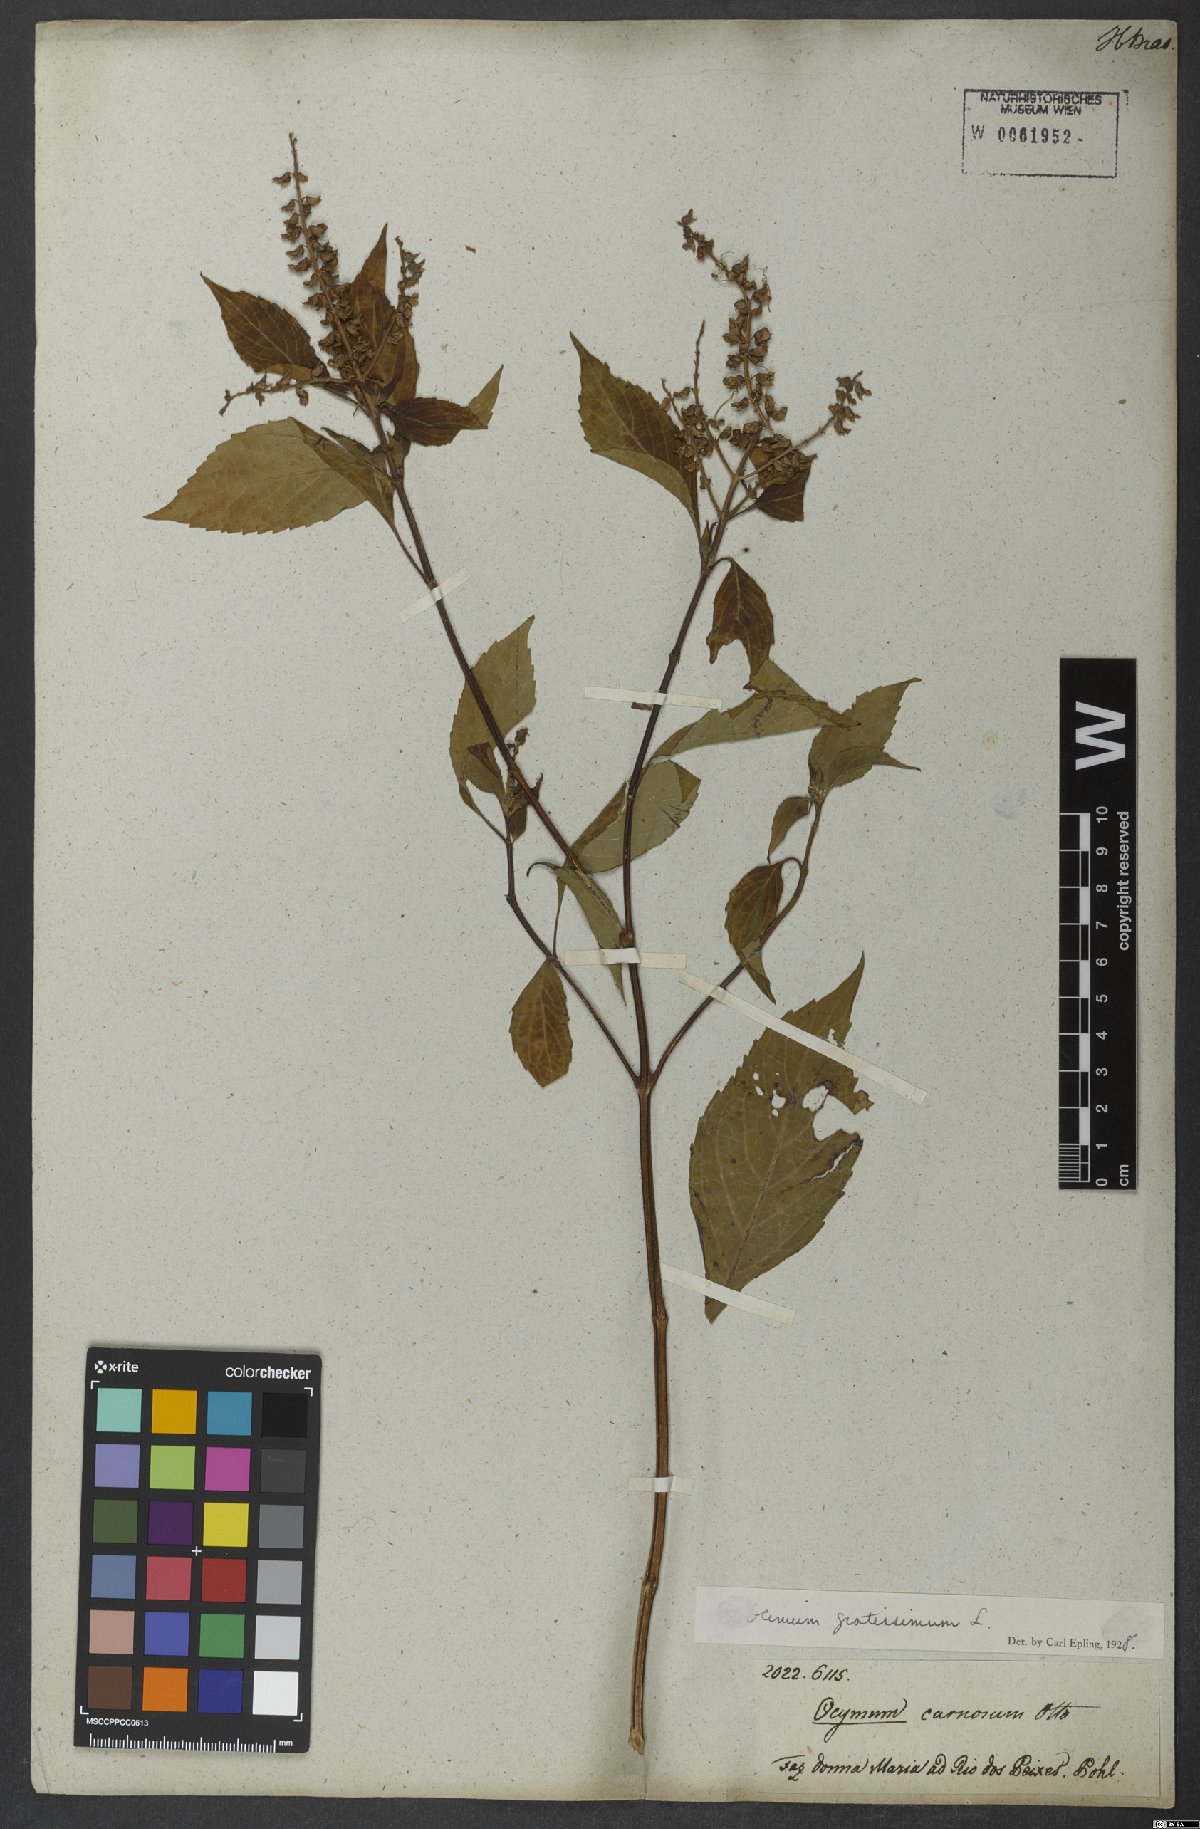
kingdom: Plantae
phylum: Tracheophyta
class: Magnoliopsida
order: Lamiales
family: Lamiaceae
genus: Ocimum
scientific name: Ocimum gratissimum
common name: African basil
